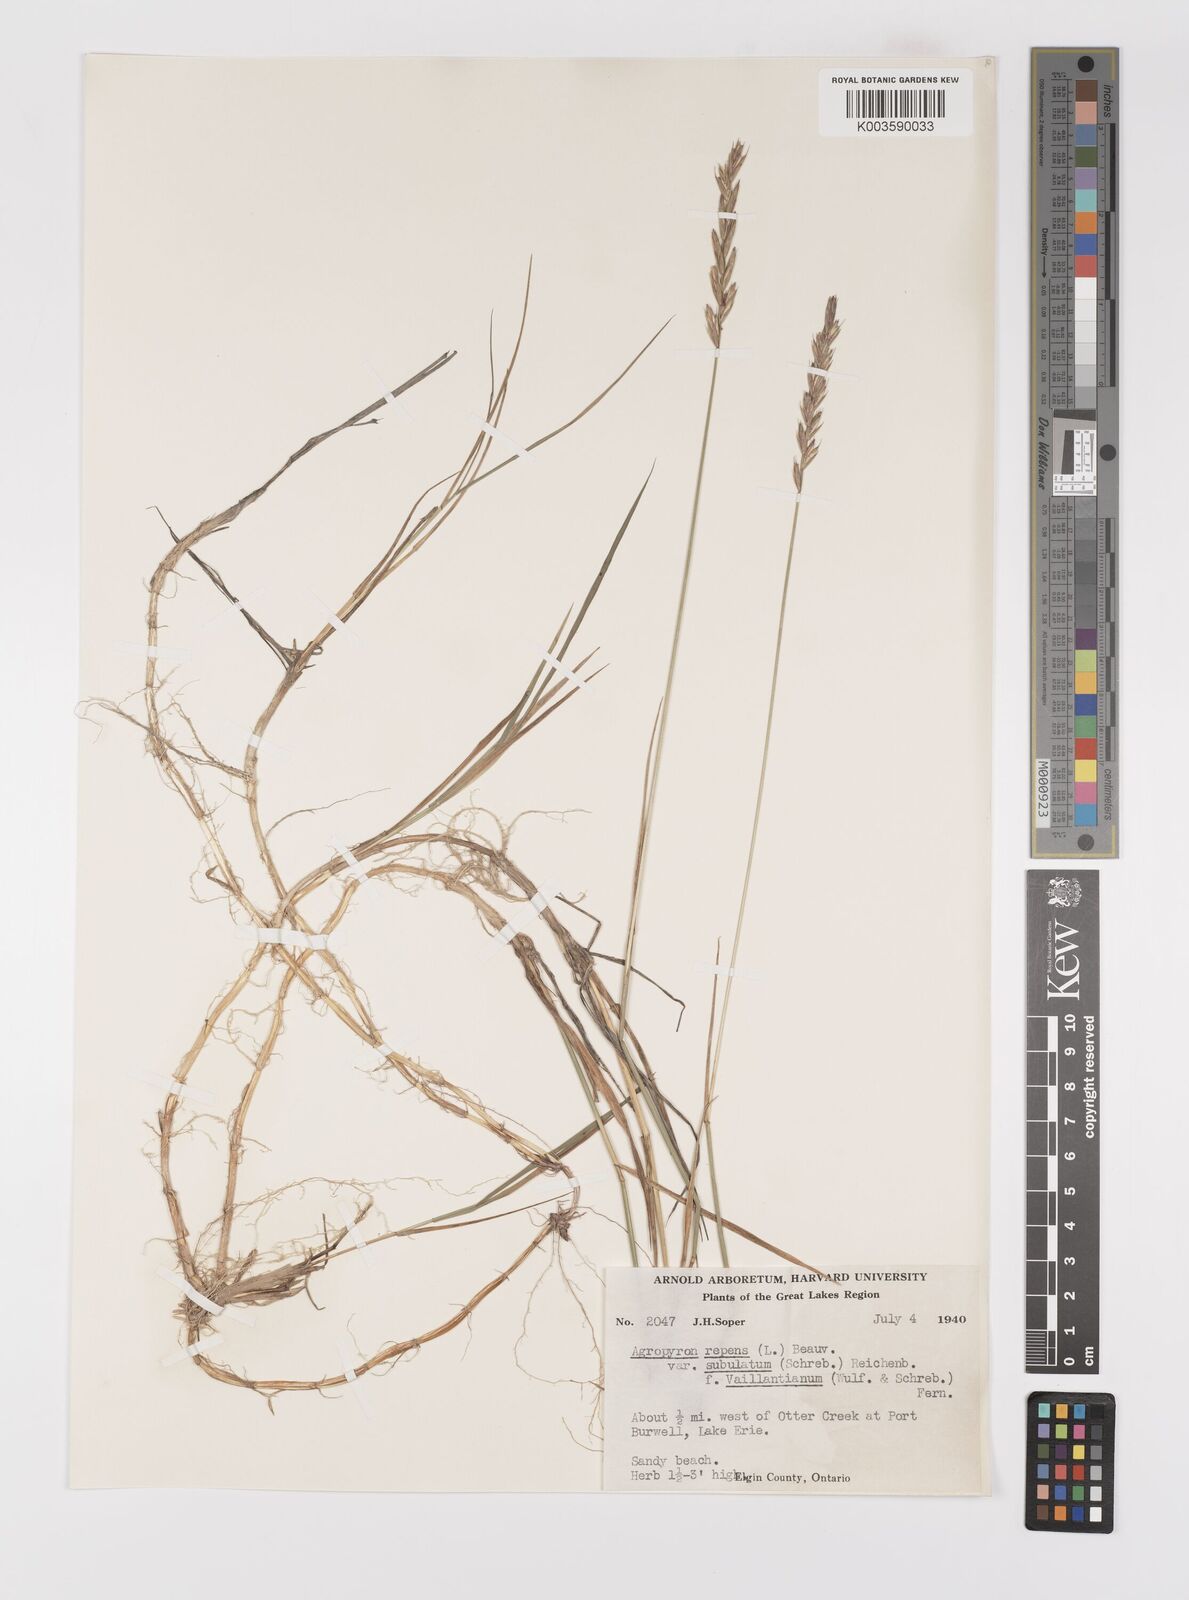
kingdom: Plantae
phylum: Tracheophyta
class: Liliopsida
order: Poales
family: Poaceae
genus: Elymus
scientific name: Elymus repens
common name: Quackgrass
